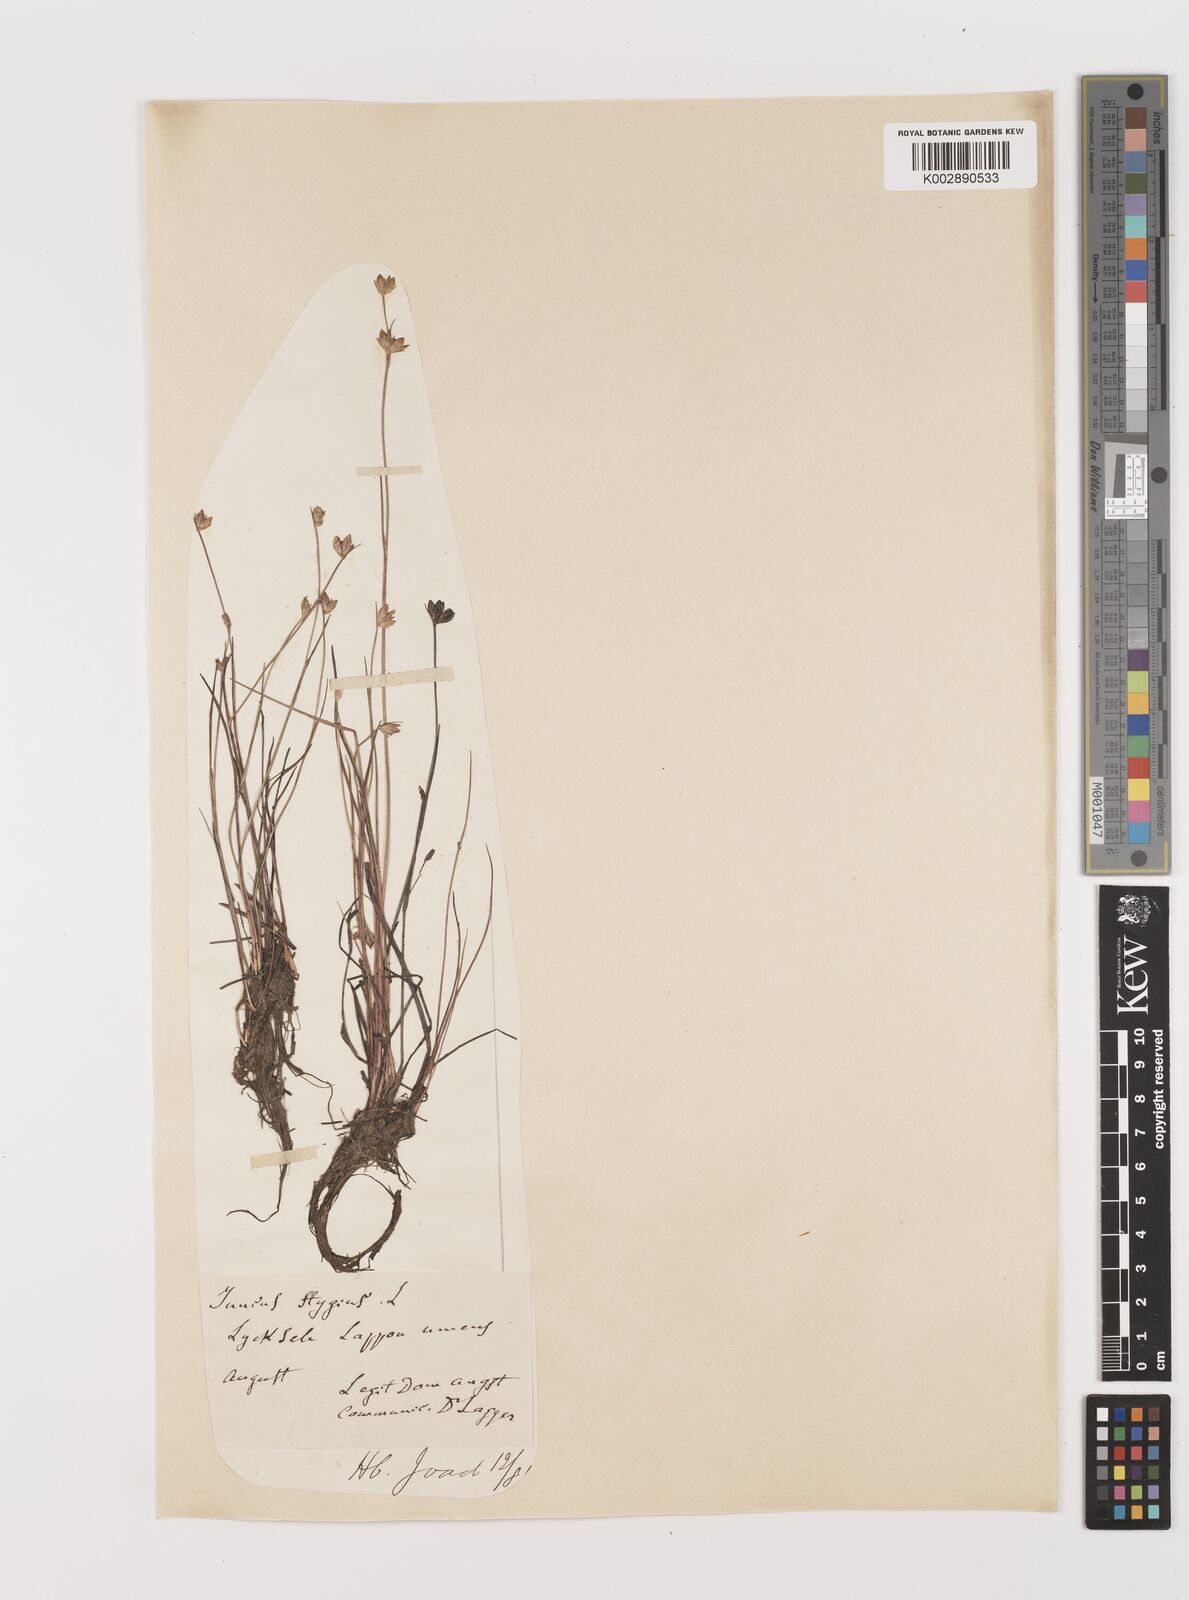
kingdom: Plantae
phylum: Tracheophyta
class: Liliopsida
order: Poales
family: Juncaceae
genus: Juncus
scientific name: Juncus stygius
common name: Bog rush
